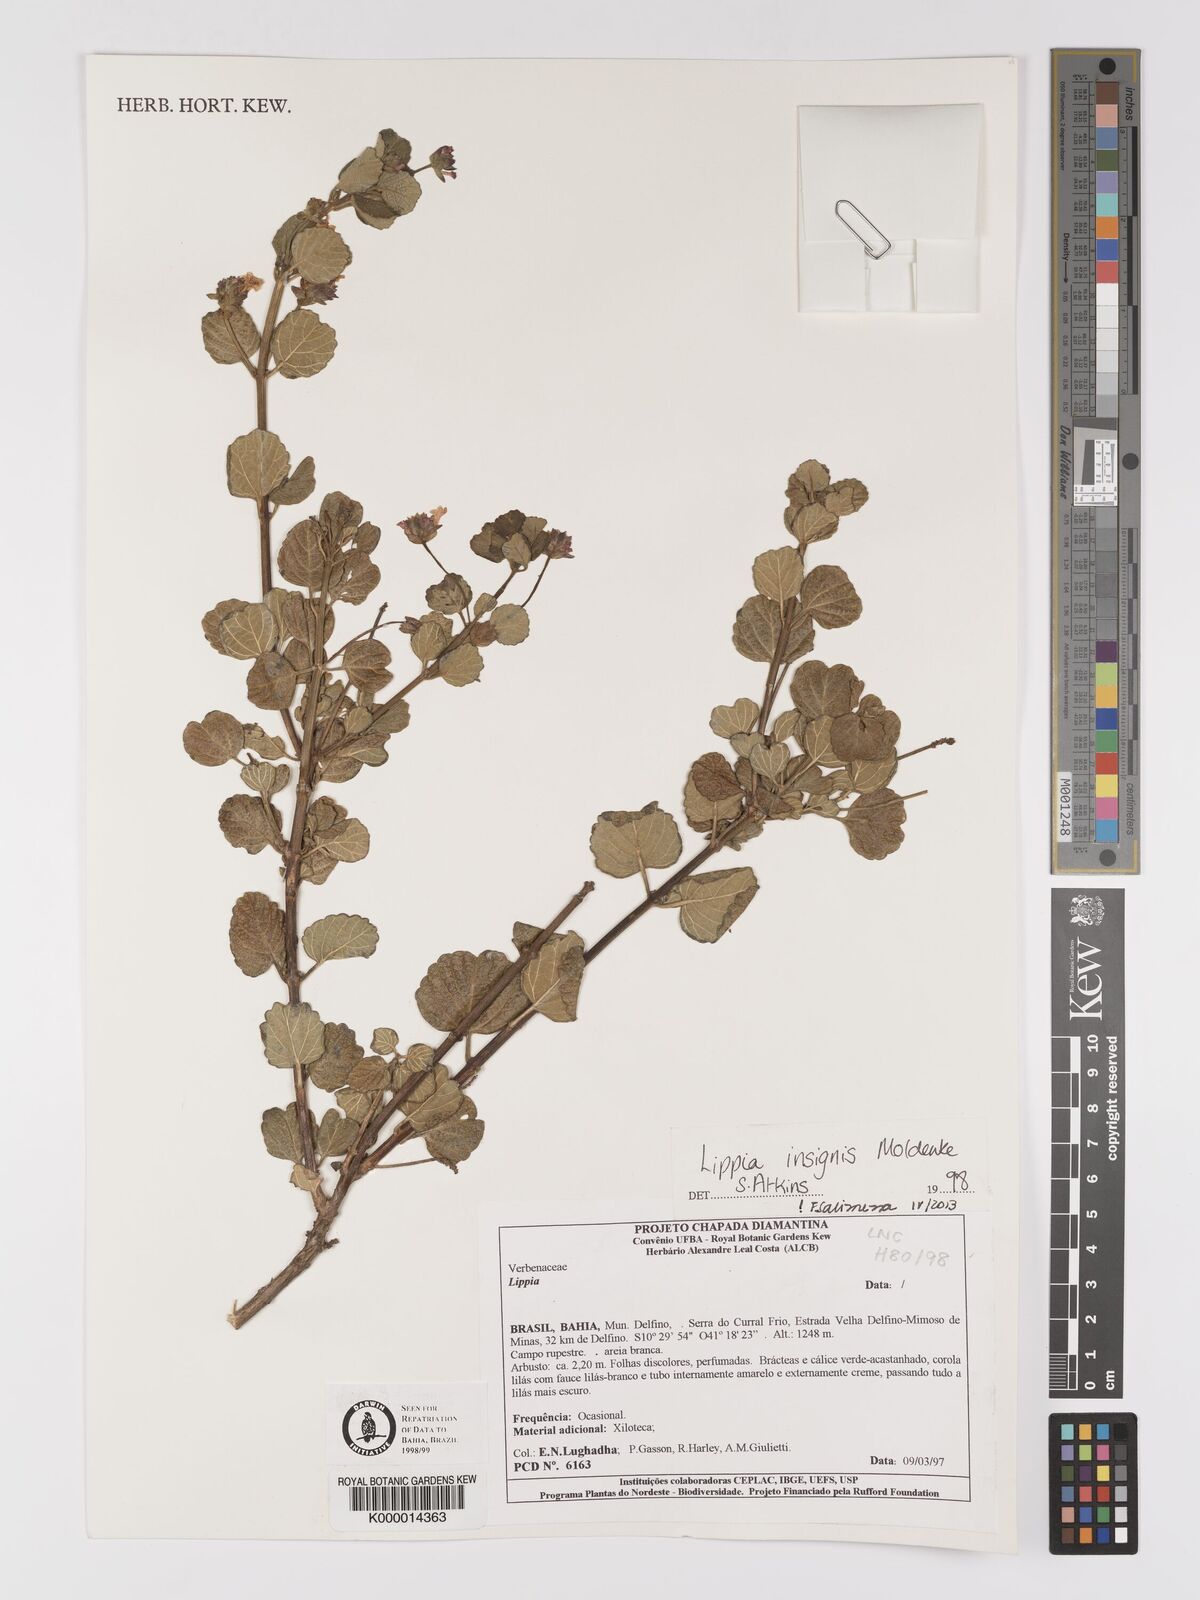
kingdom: Plantae
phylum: Tracheophyta
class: Magnoliopsida
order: Lamiales
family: Verbenaceae
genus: Lippia
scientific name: Lippia insignis
